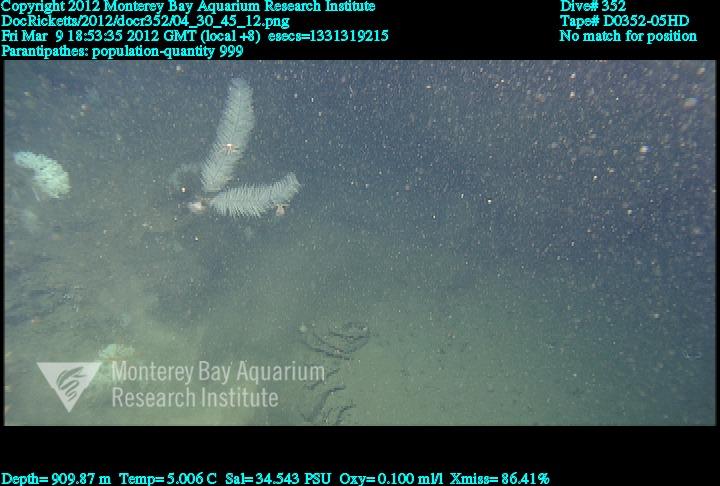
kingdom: Animalia
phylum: Cnidaria
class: Anthozoa
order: Antipatharia
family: Schizopathidae
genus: Parantipathes
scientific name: Parantipathes
